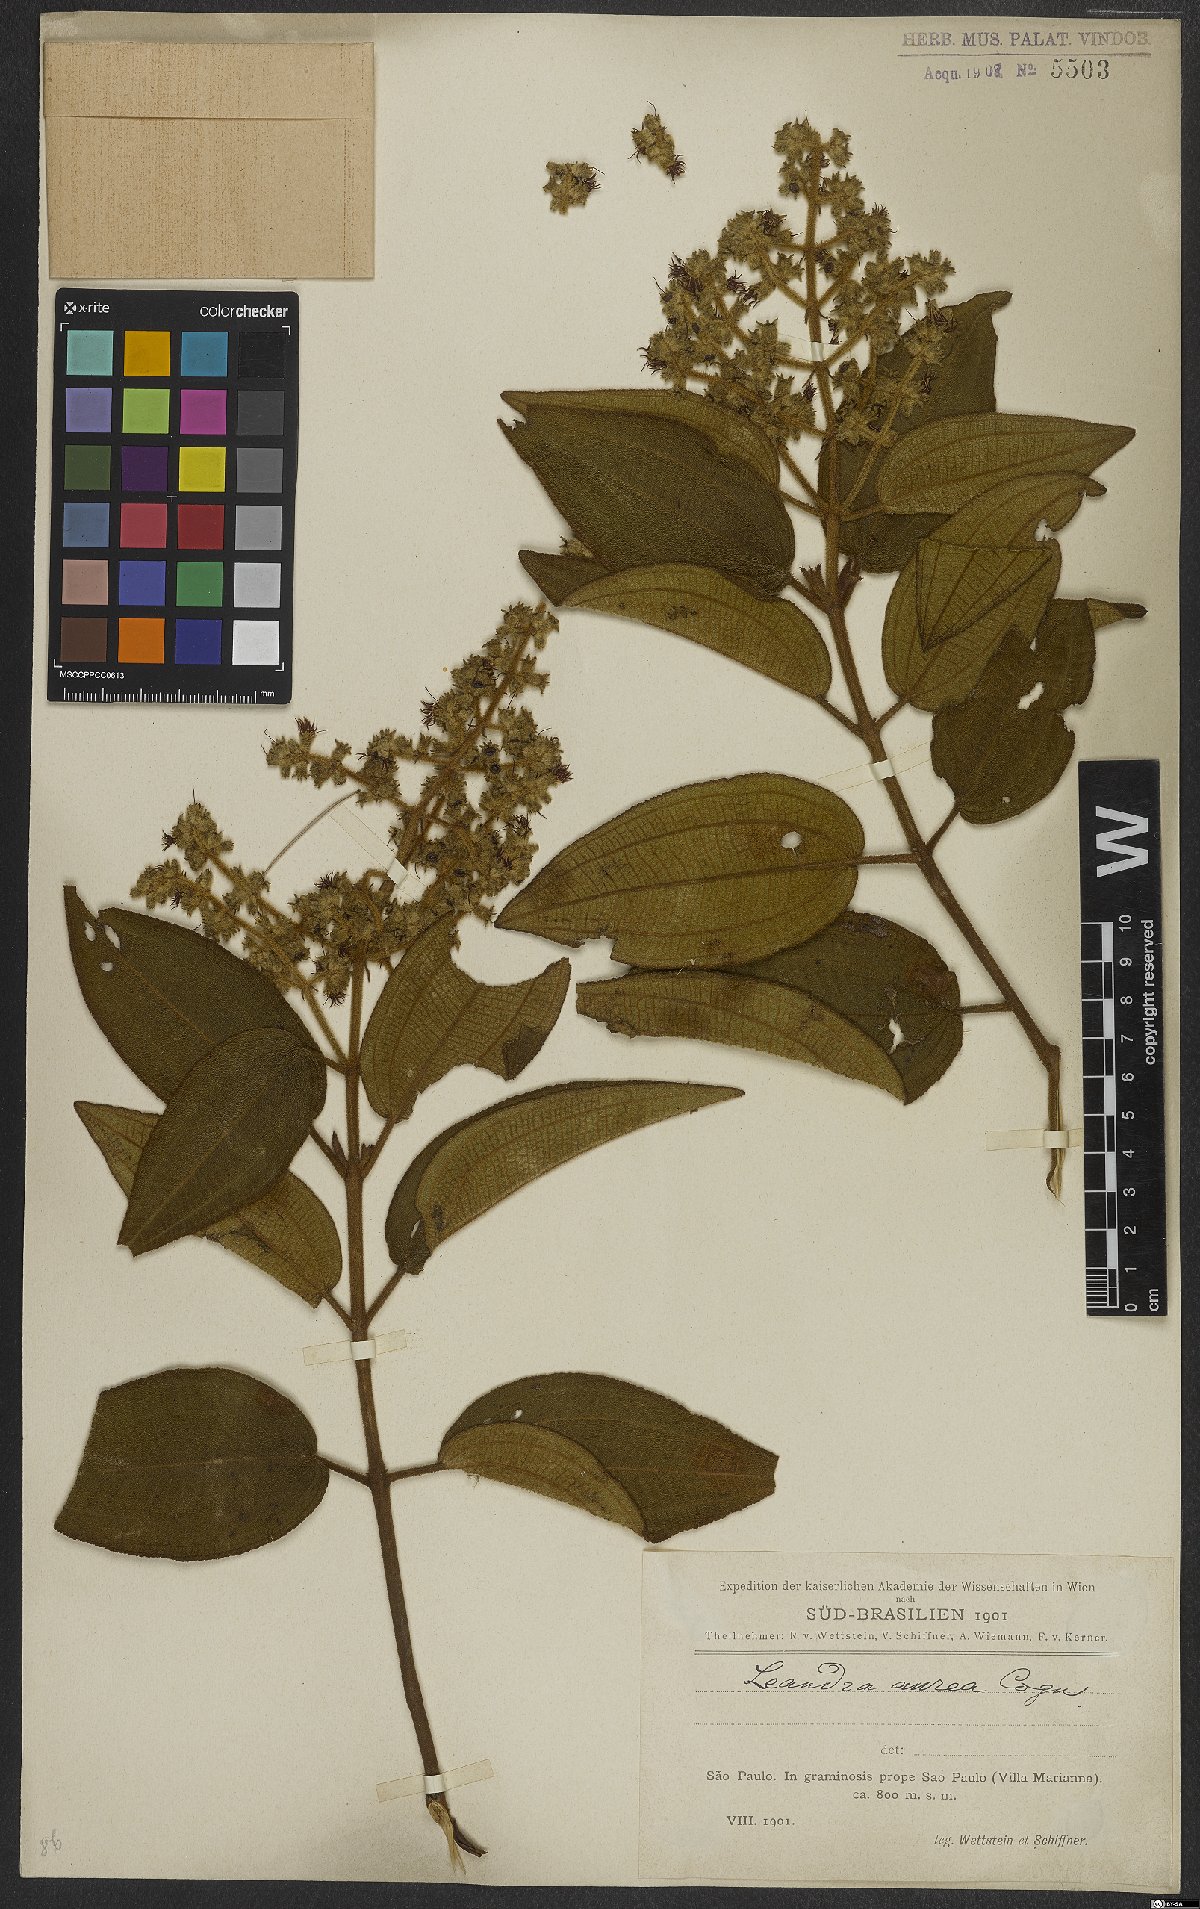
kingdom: Plantae
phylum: Tracheophyta
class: Magnoliopsida
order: Myrtales
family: Melastomataceae
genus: Miconia
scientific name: Miconia auricoma
